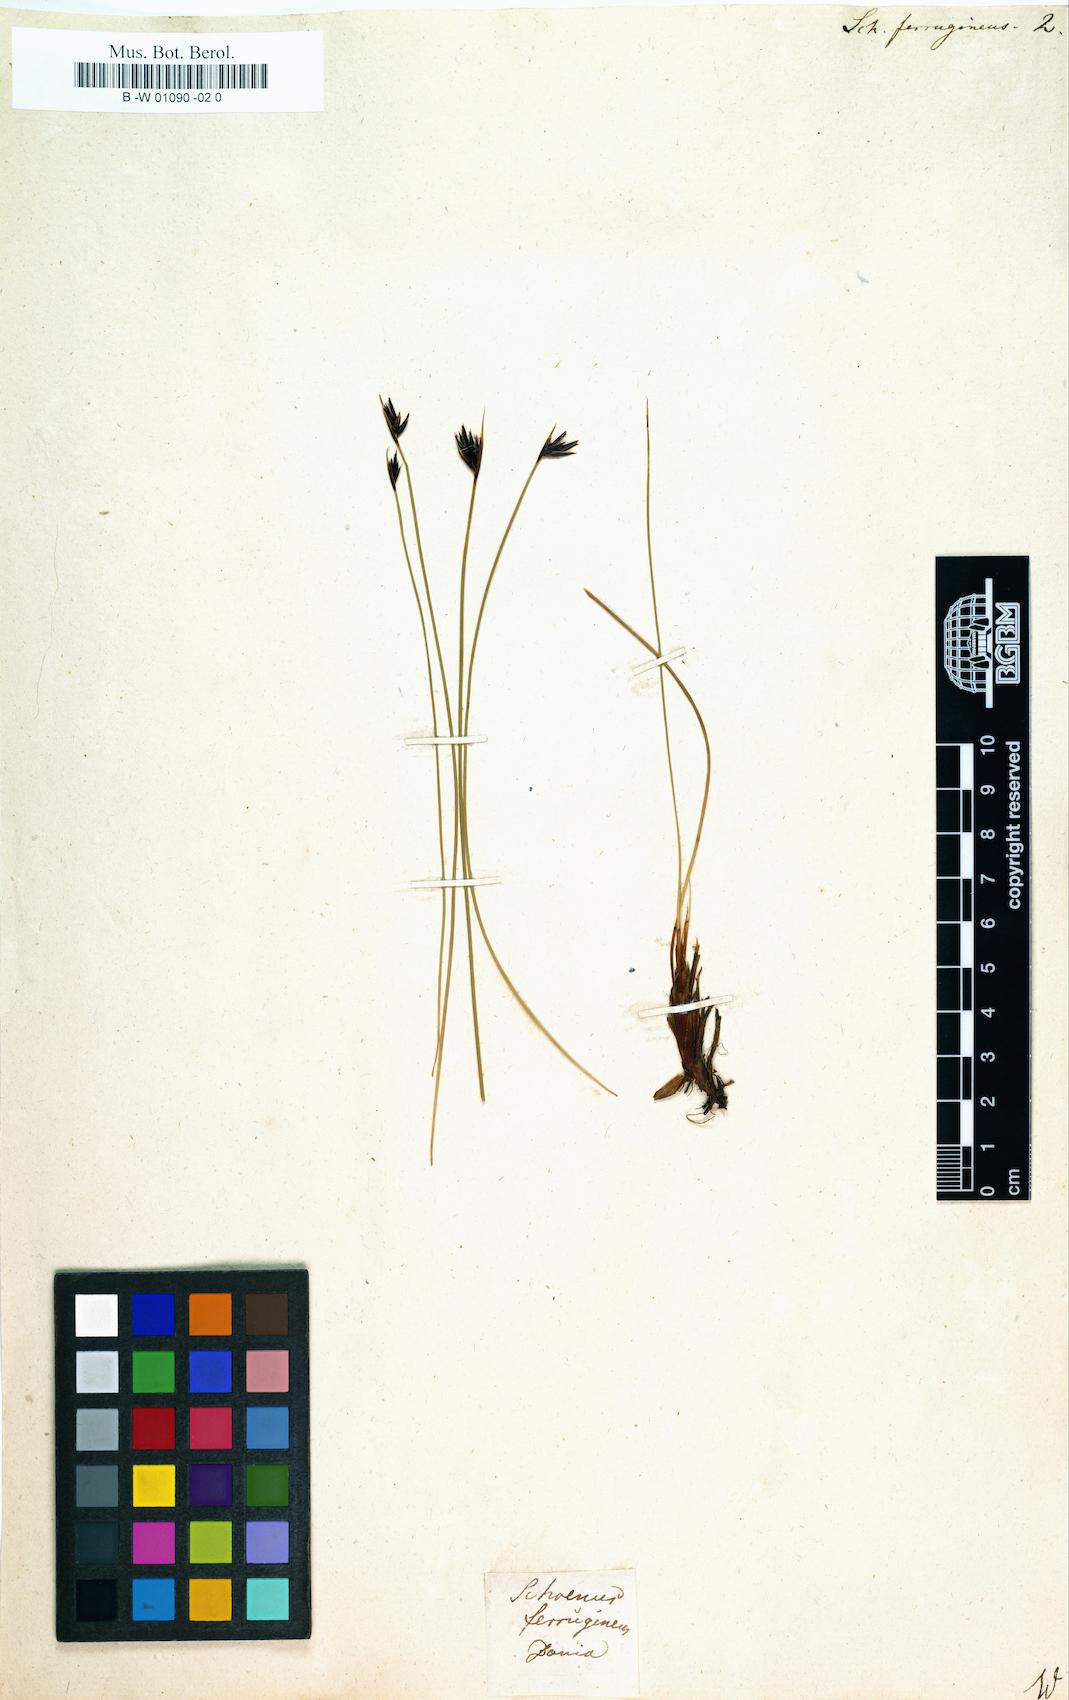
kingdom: Plantae
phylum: Tracheophyta
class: Liliopsida
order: Poales
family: Cyperaceae
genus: Schoenus
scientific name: Schoenus ferrugineus
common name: Brown bog-rush
